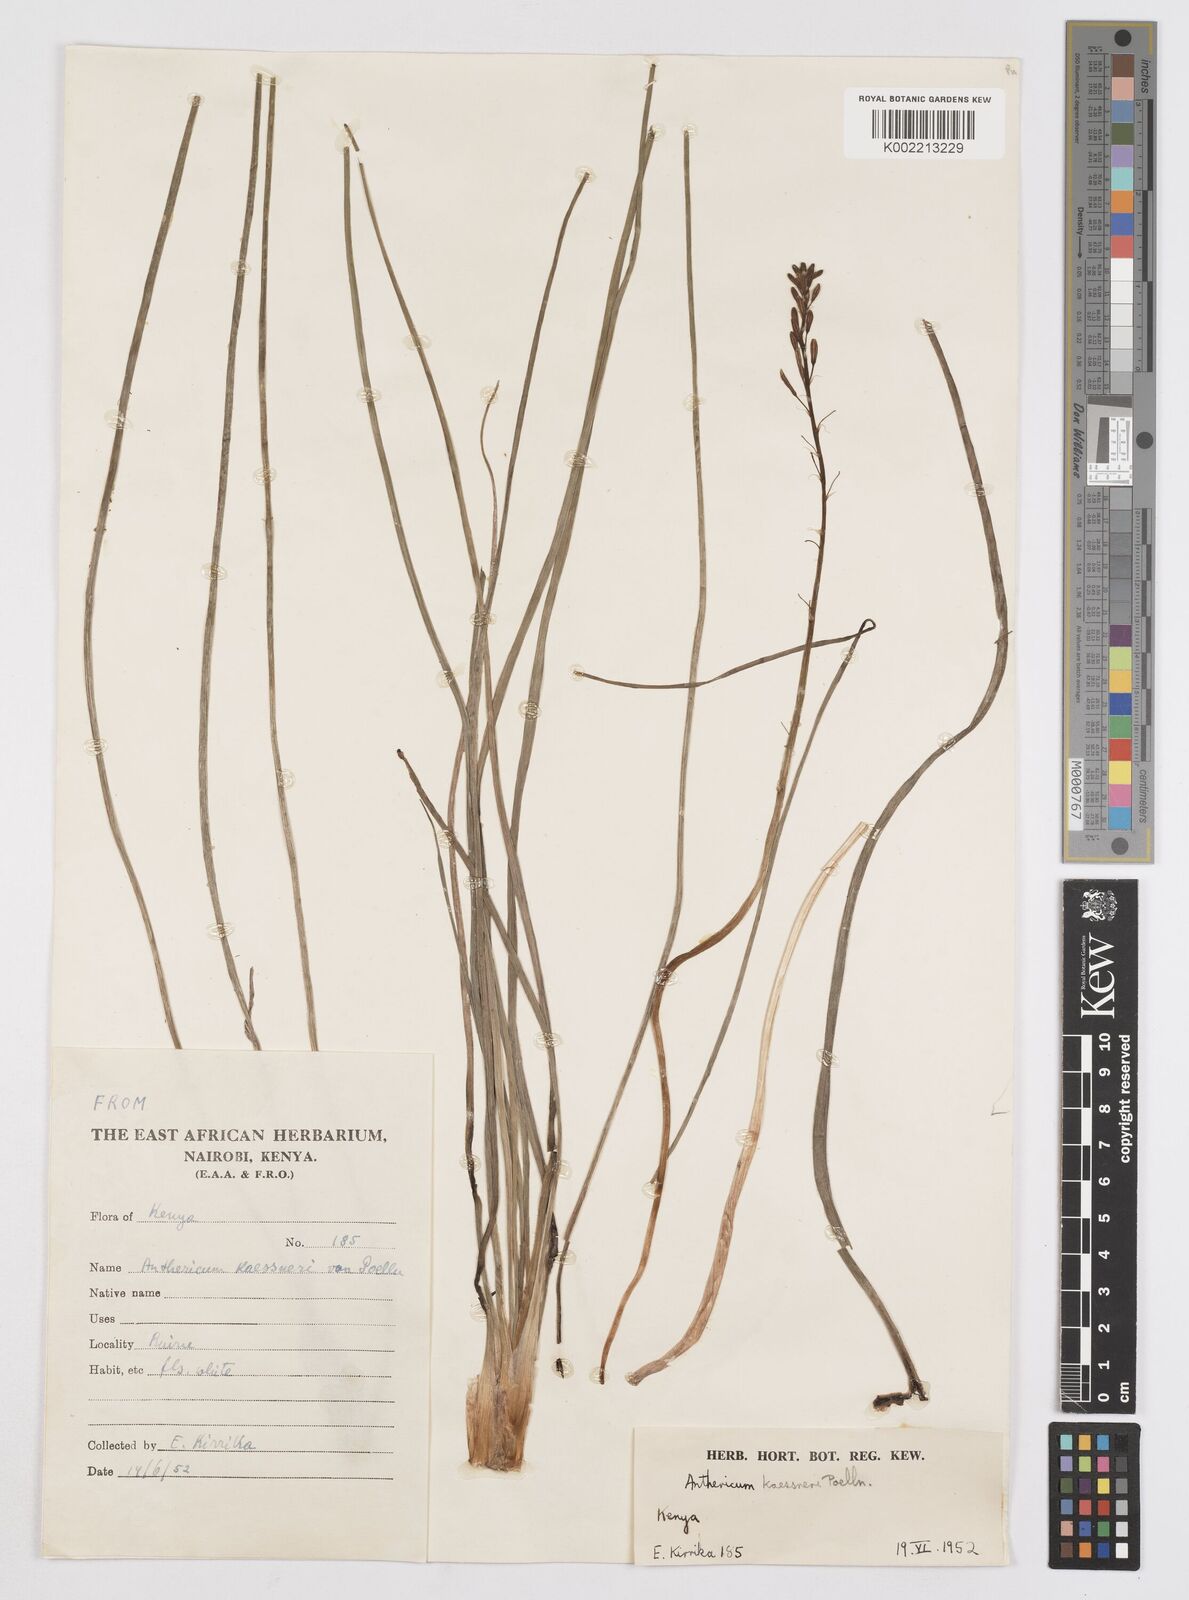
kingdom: Plantae
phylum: Tracheophyta
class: Liliopsida
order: Asparagales
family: Asphodelaceae
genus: Trachyandra
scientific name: Trachyandra saltii
